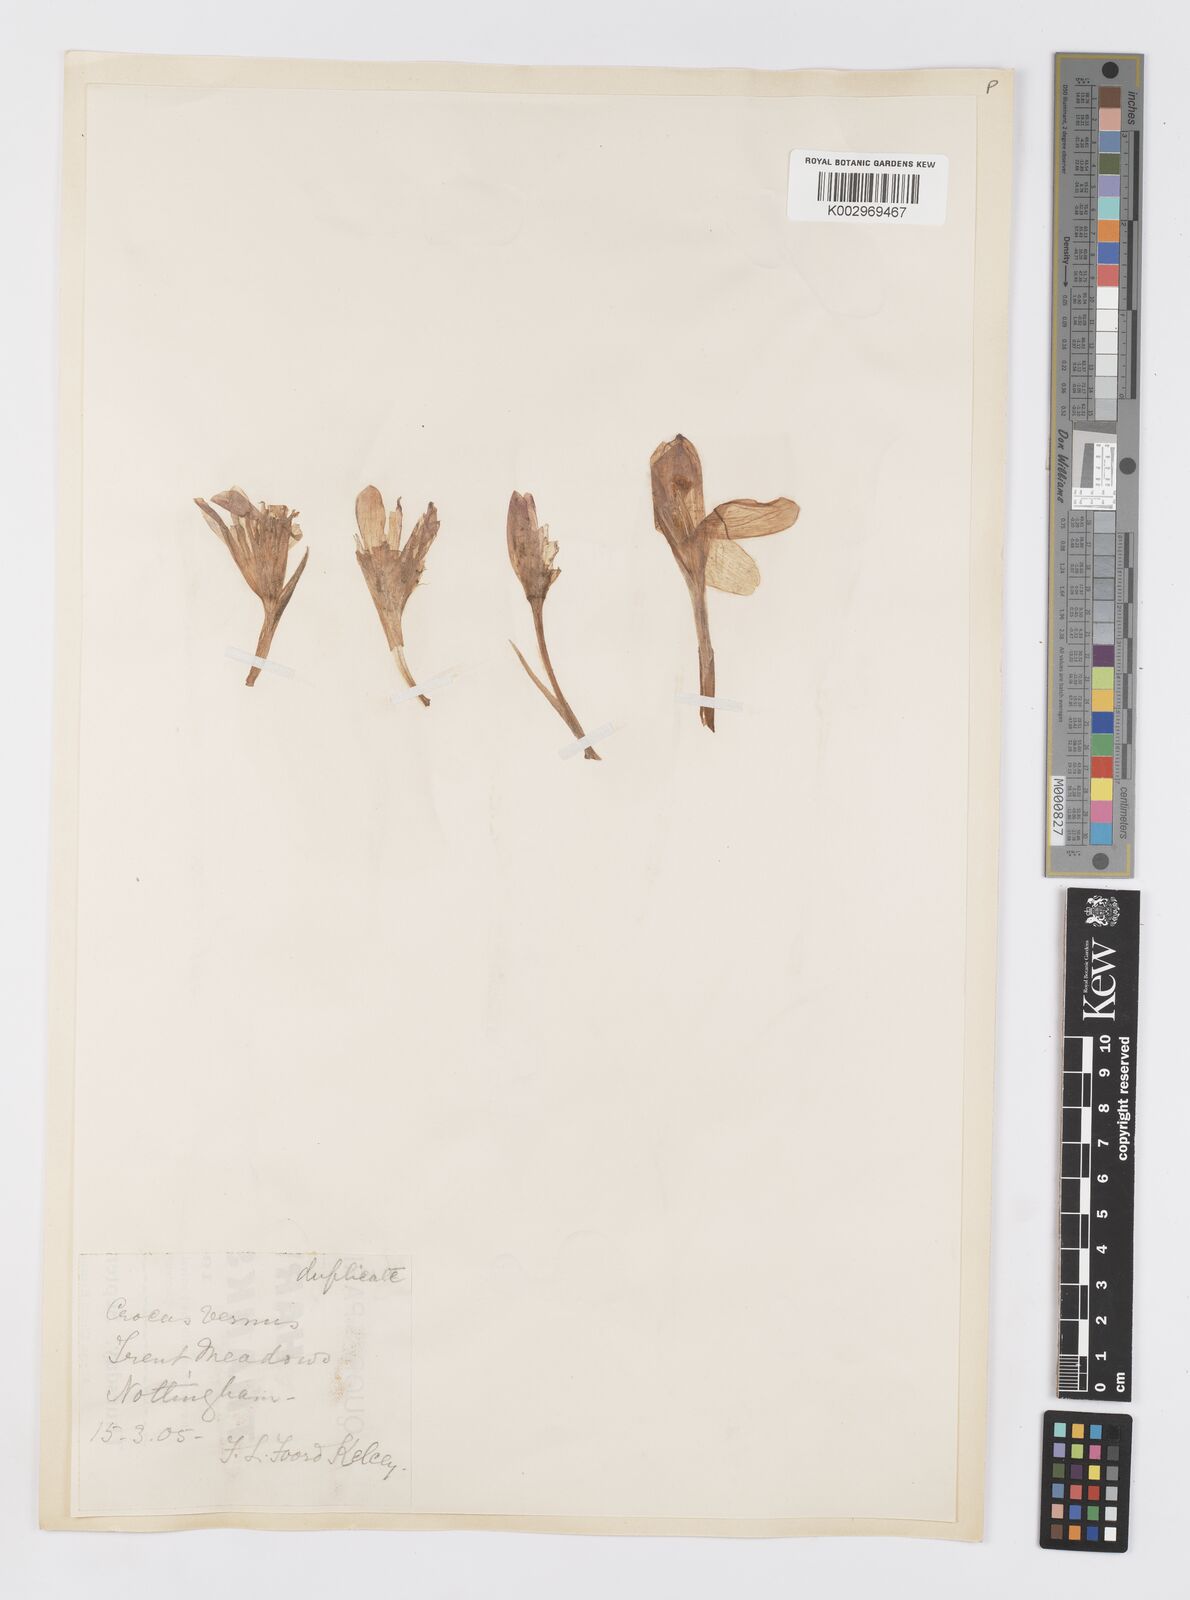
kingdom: Plantae
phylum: Tracheophyta
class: Liliopsida
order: Asparagales
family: Iridaceae
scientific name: Iridaceae
